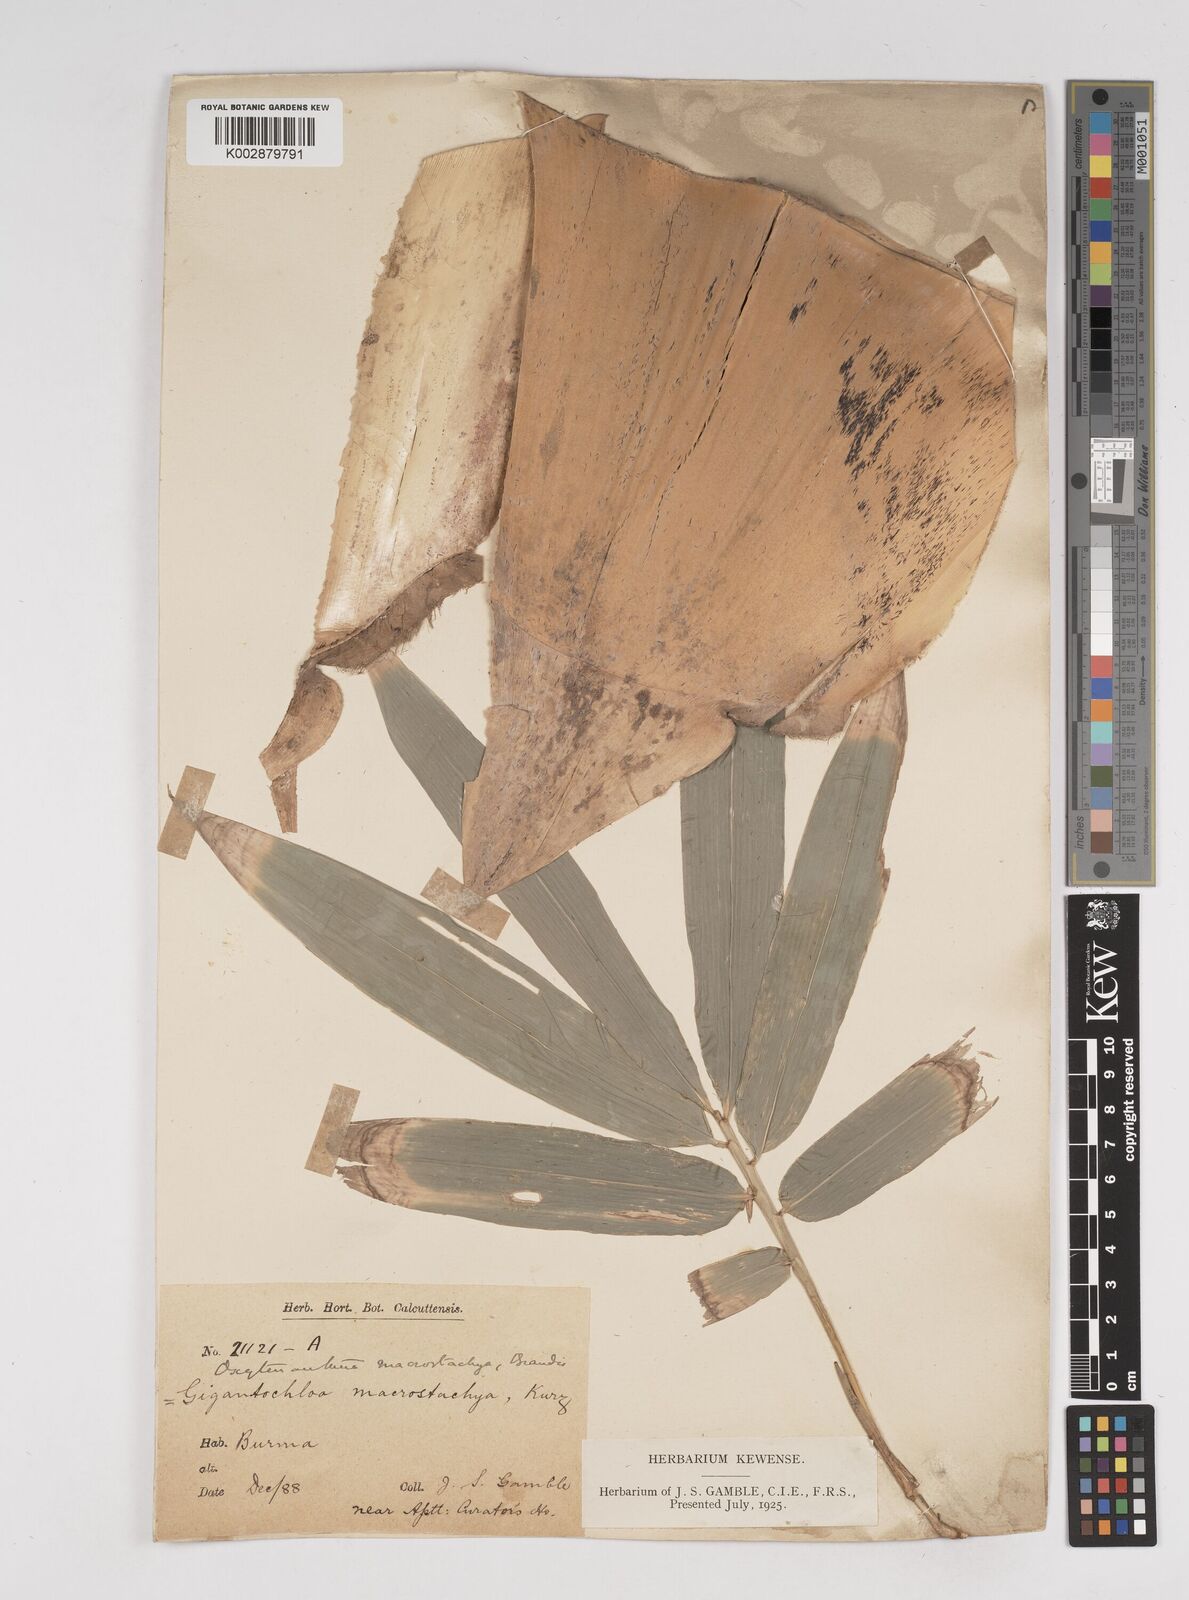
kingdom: Plantae
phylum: Tracheophyta
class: Liliopsida
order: Poales
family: Poaceae
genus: Gigantochloa
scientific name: Gigantochloa macrostachya
